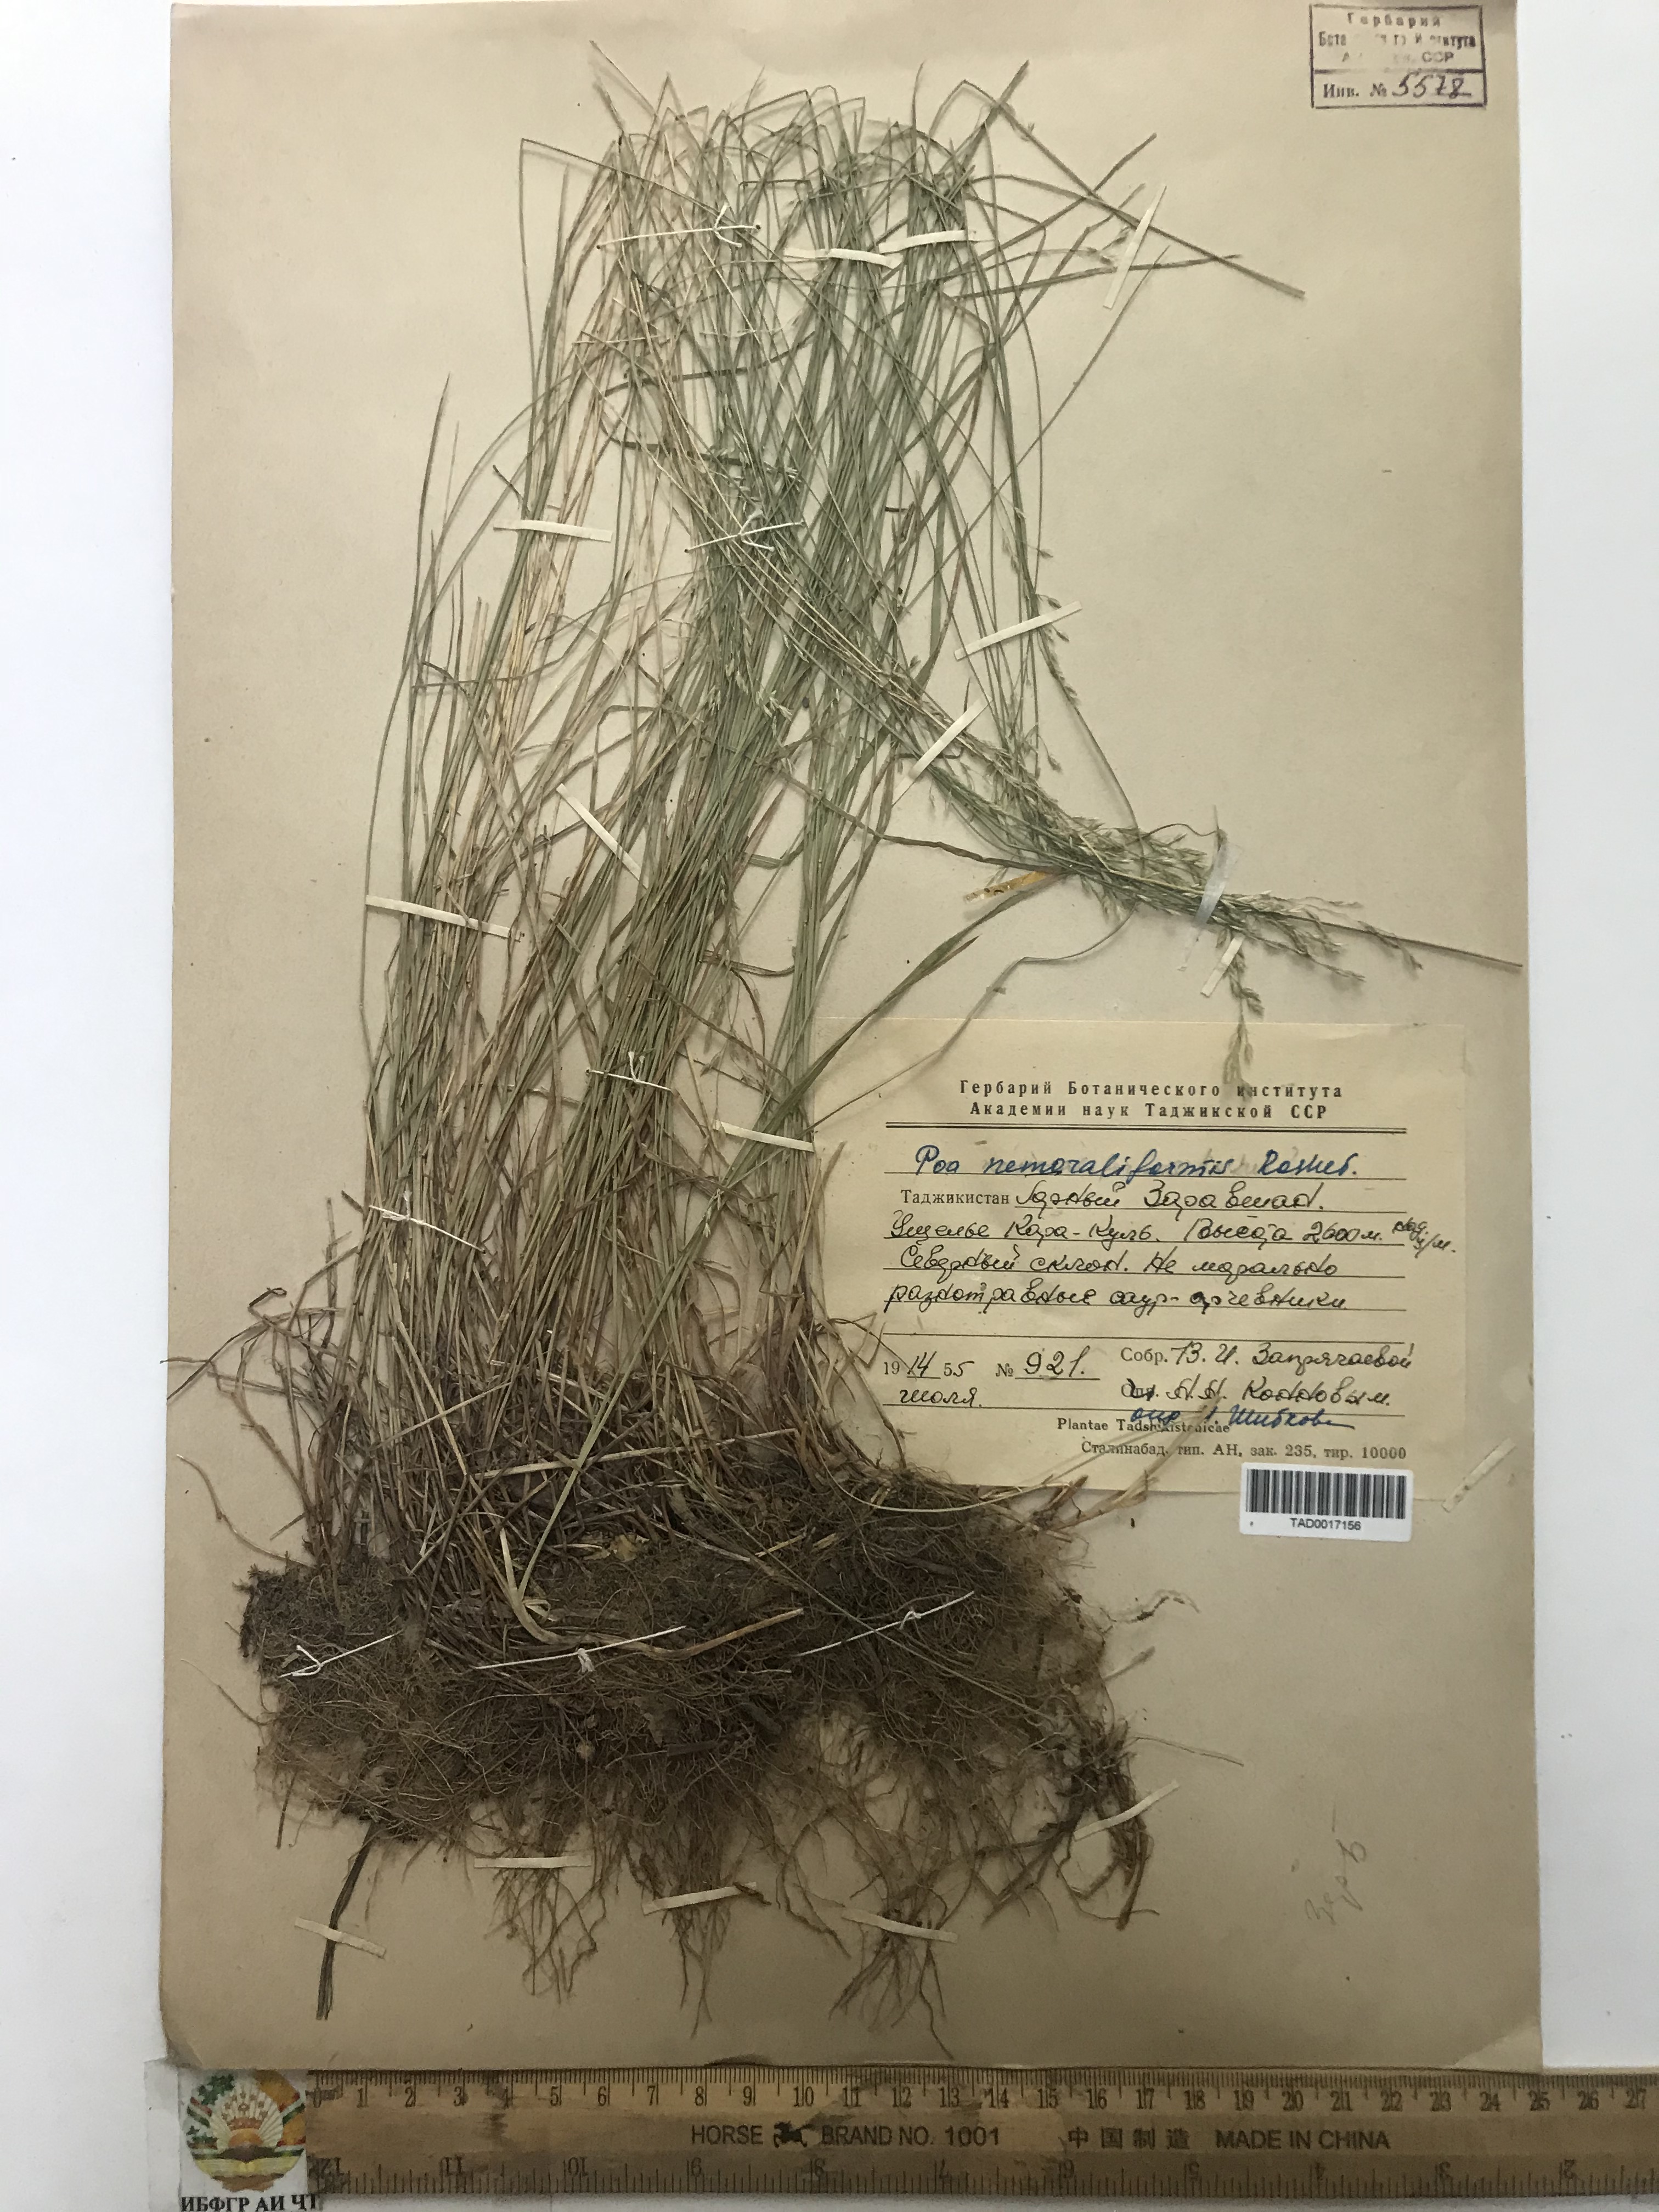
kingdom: Plantae
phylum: Tracheophyta
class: Liliopsida
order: Poales
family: Poaceae
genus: Poa
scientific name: Poa urssulensis
